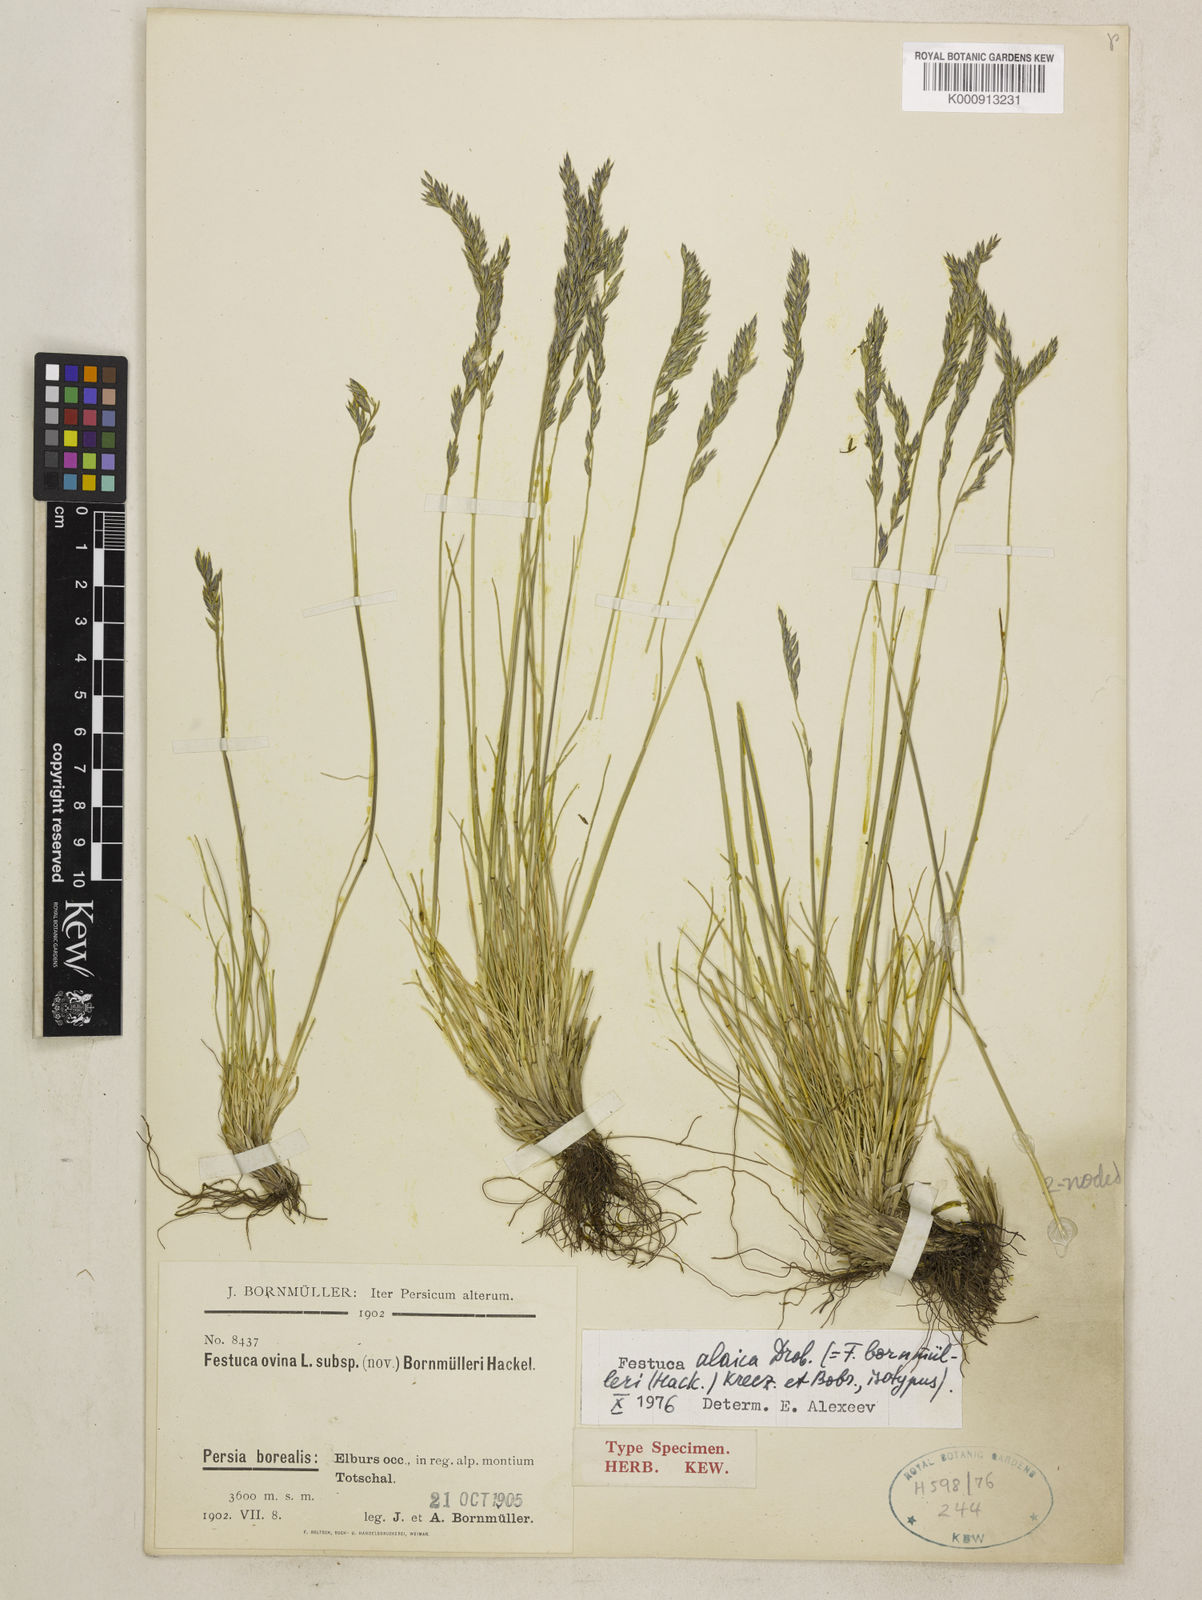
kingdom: Plantae
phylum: Tracheophyta
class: Liliopsida
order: Poales
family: Poaceae
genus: Festuca
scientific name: Festuca alaica
